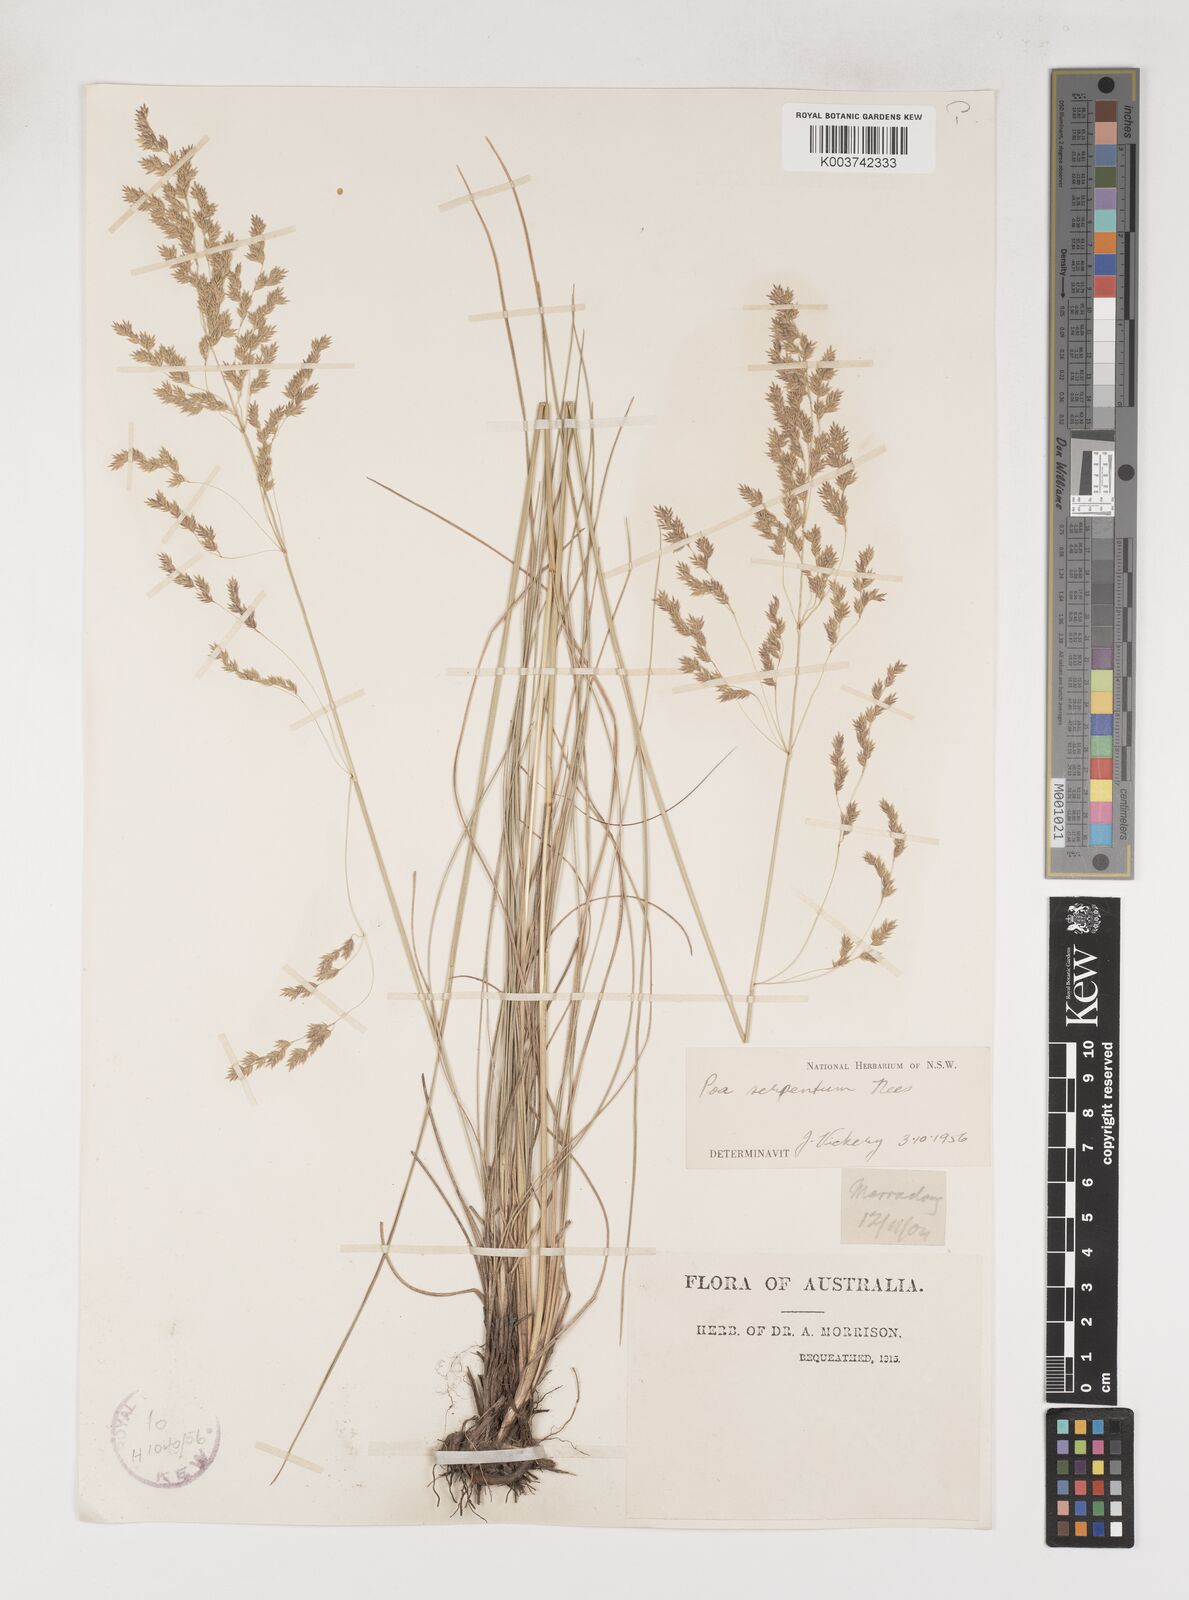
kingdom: Plantae
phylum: Tracheophyta
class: Liliopsida
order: Poales
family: Poaceae
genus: Poa
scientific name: Poa porphyroclados
